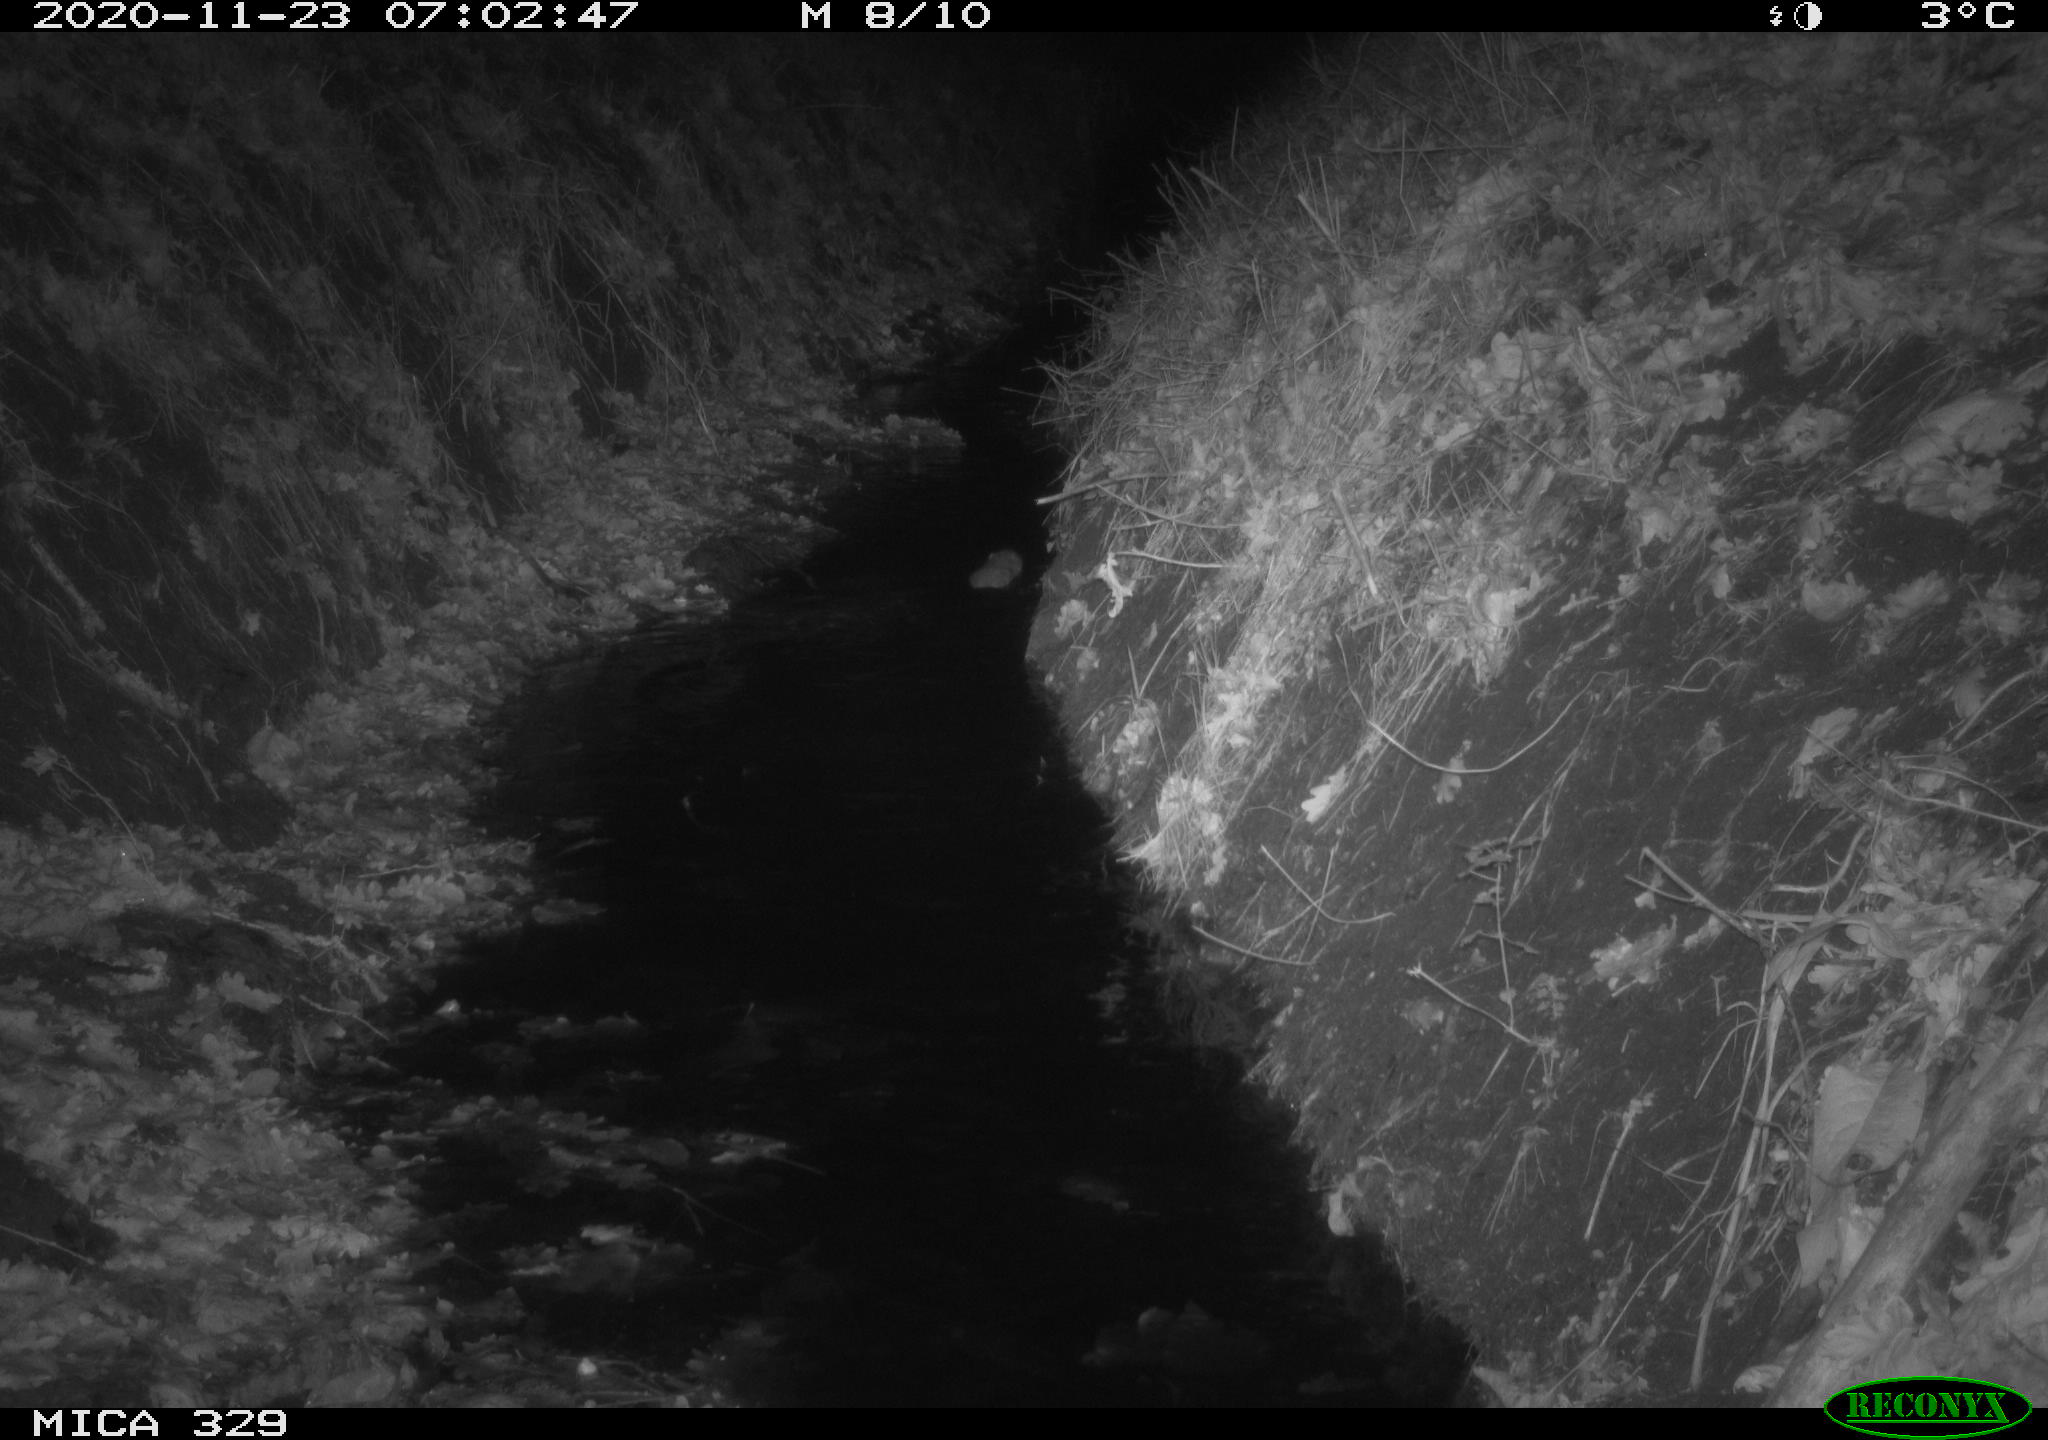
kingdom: Animalia
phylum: Chordata
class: Mammalia
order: Rodentia
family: Cricetidae
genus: Ondatra
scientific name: Ondatra zibethicus
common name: Muskrat
